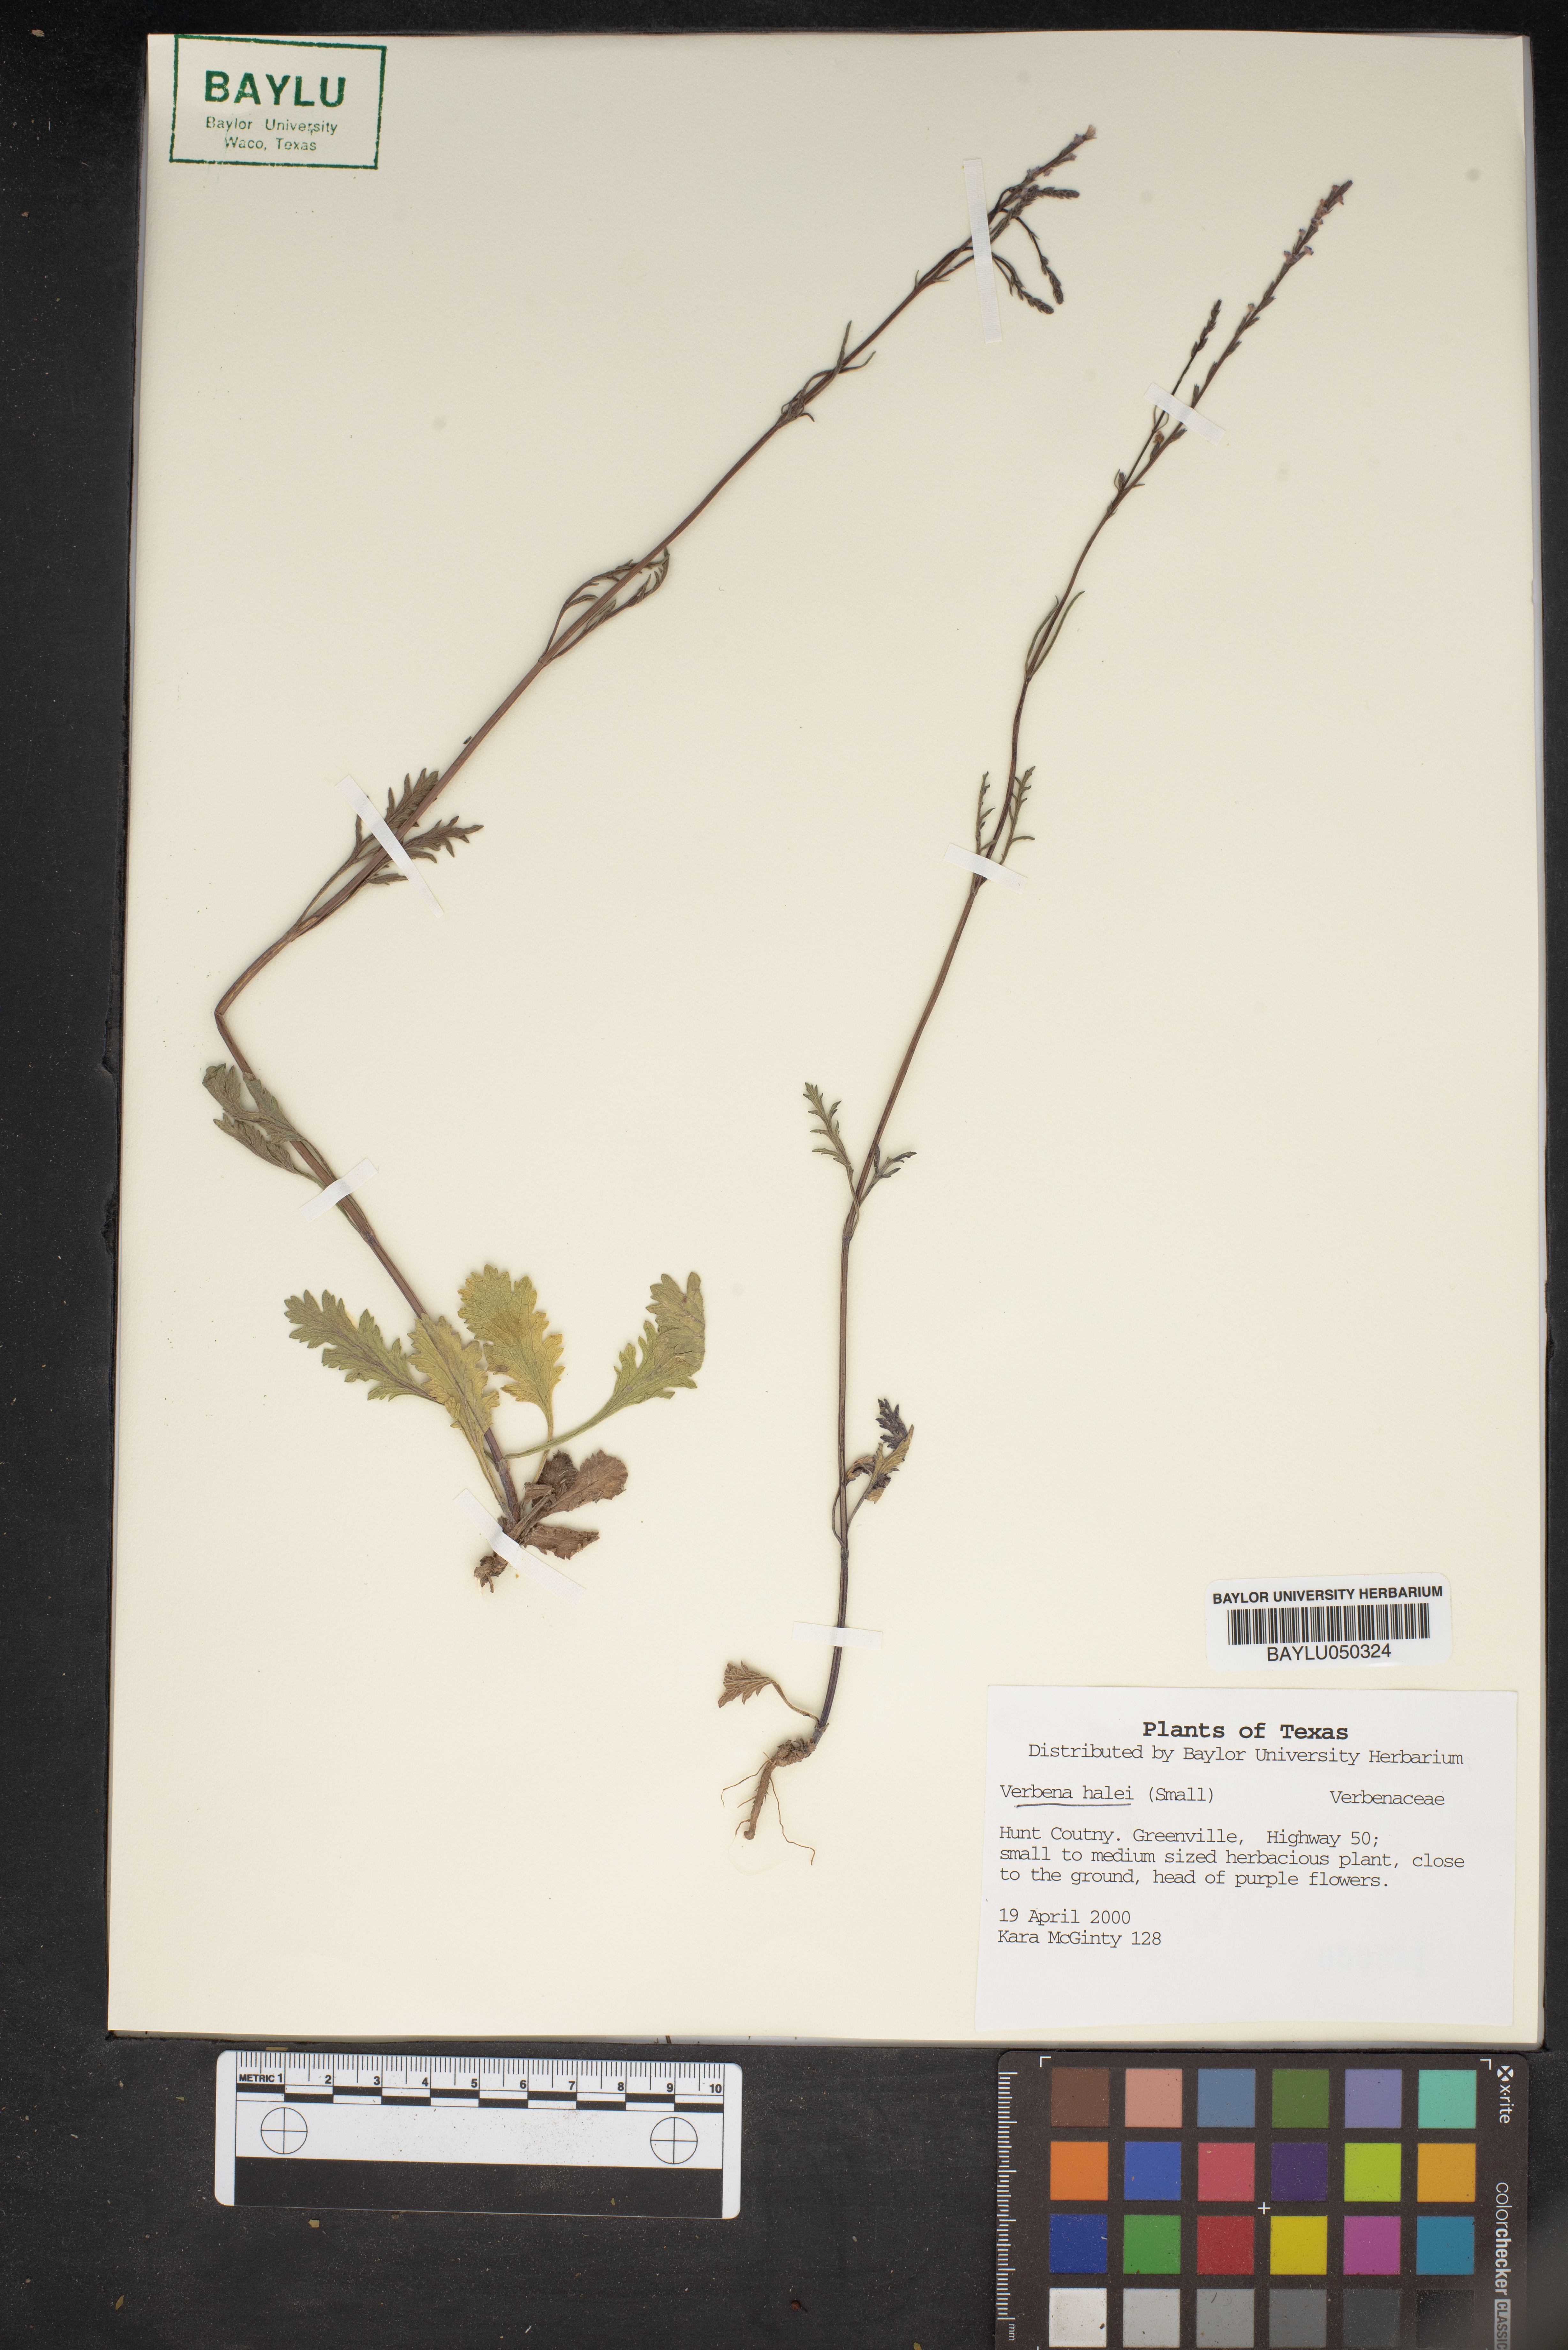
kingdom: Plantae
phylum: Tracheophyta
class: Magnoliopsida
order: Lamiales
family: Verbenaceae
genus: Verbena
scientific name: Verbena halei
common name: Texas vervain
